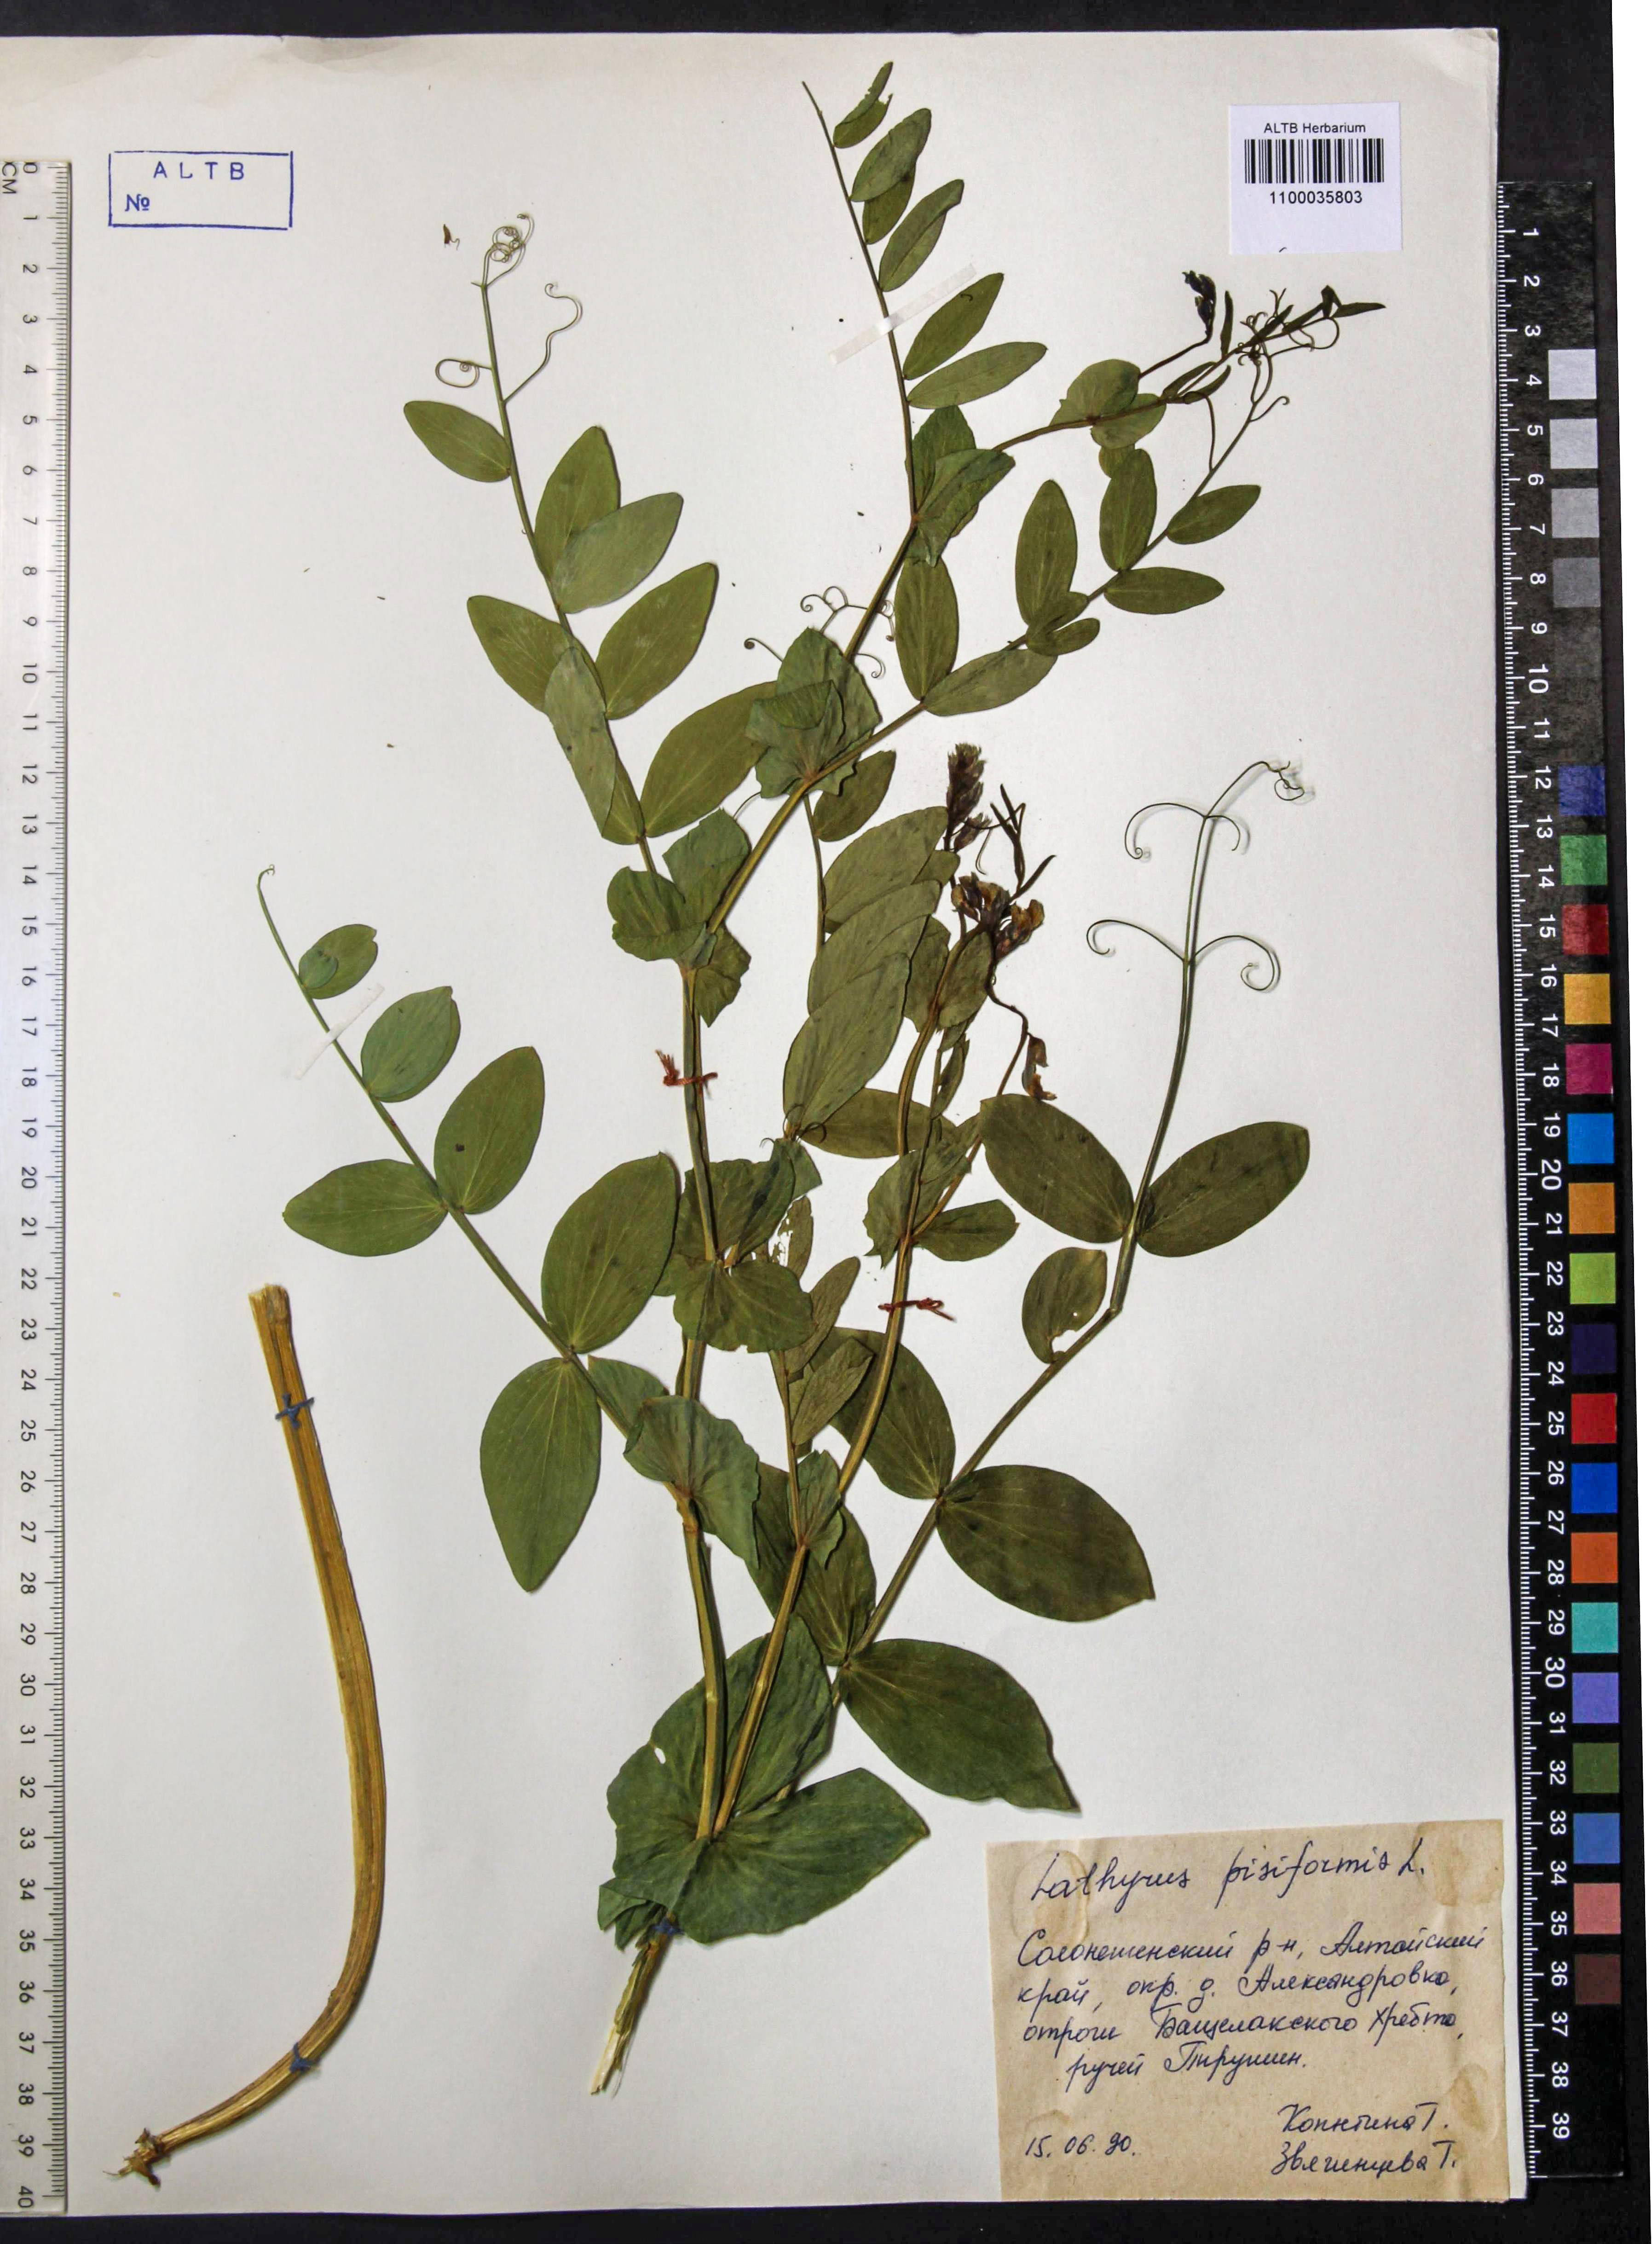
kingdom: Plantae
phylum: Tracheophyta
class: Magnoliopsida
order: Fabales
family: Fabaceae
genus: Lathyrus
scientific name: Lathyrus pisiformis
